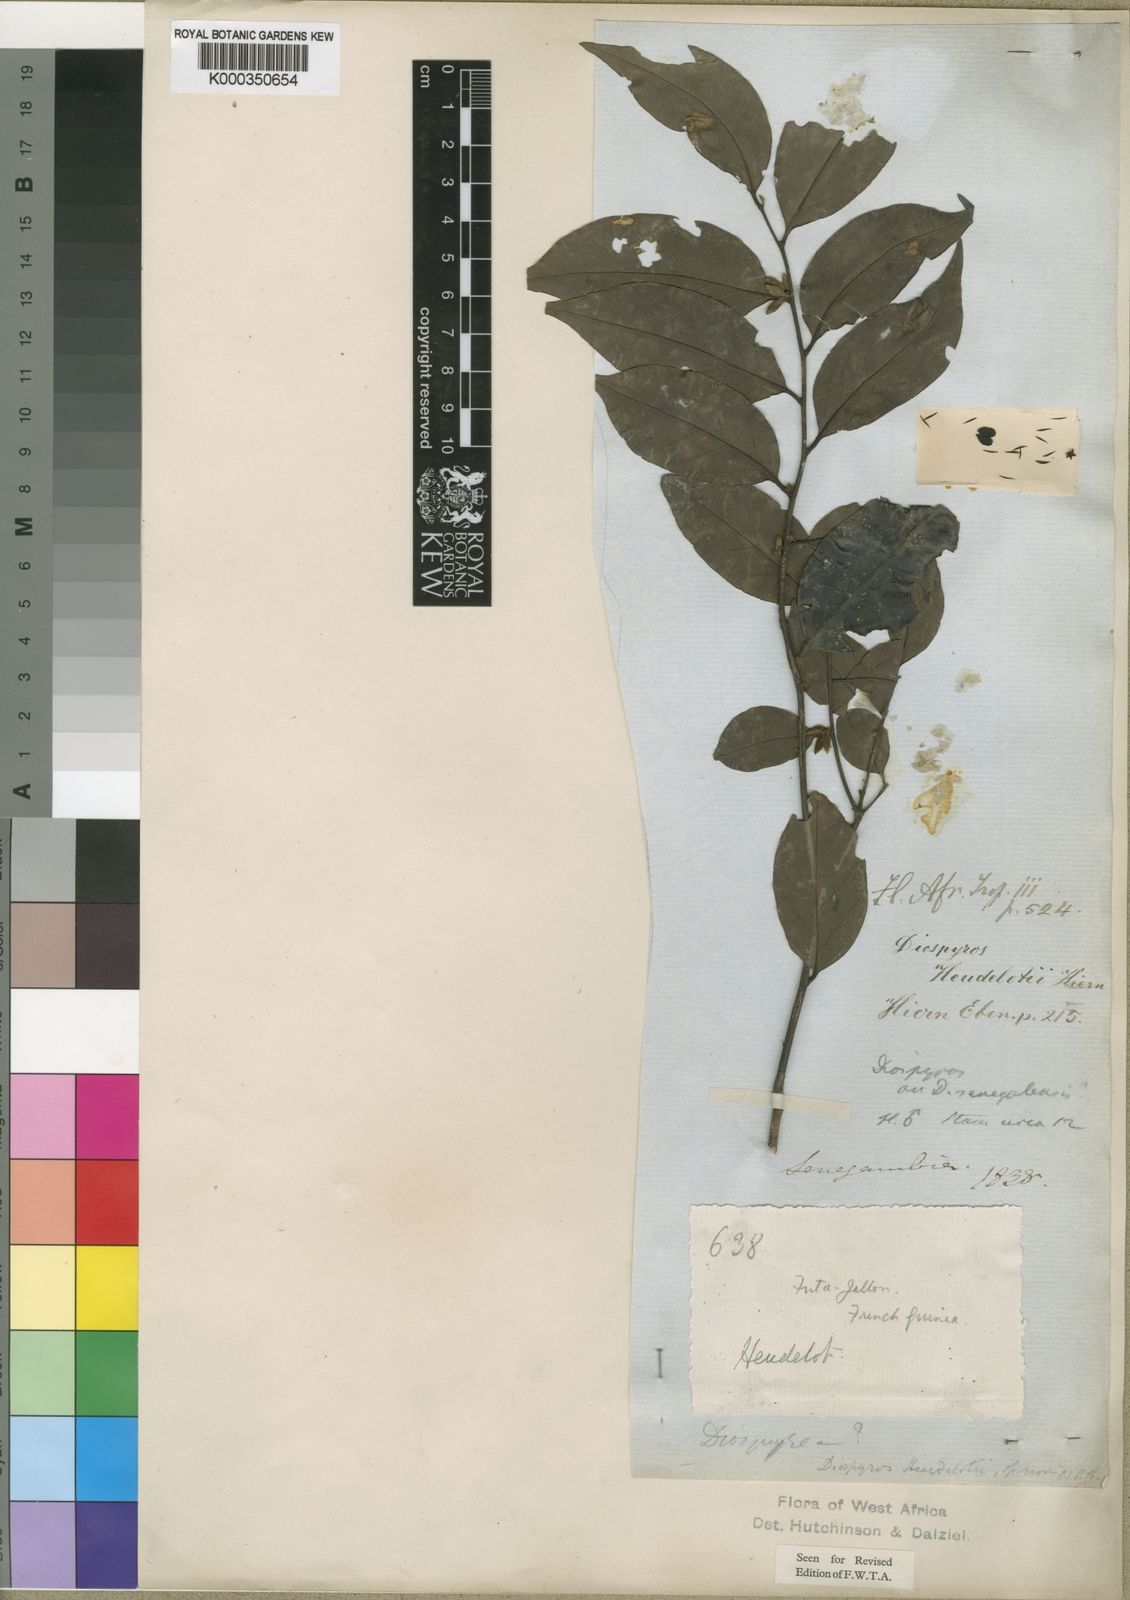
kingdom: Plantae
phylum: Tracheophyta
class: Magnoliopsida
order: Ericales
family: Ebenaceae
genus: Diospyros
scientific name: Diospyros heudelotii
